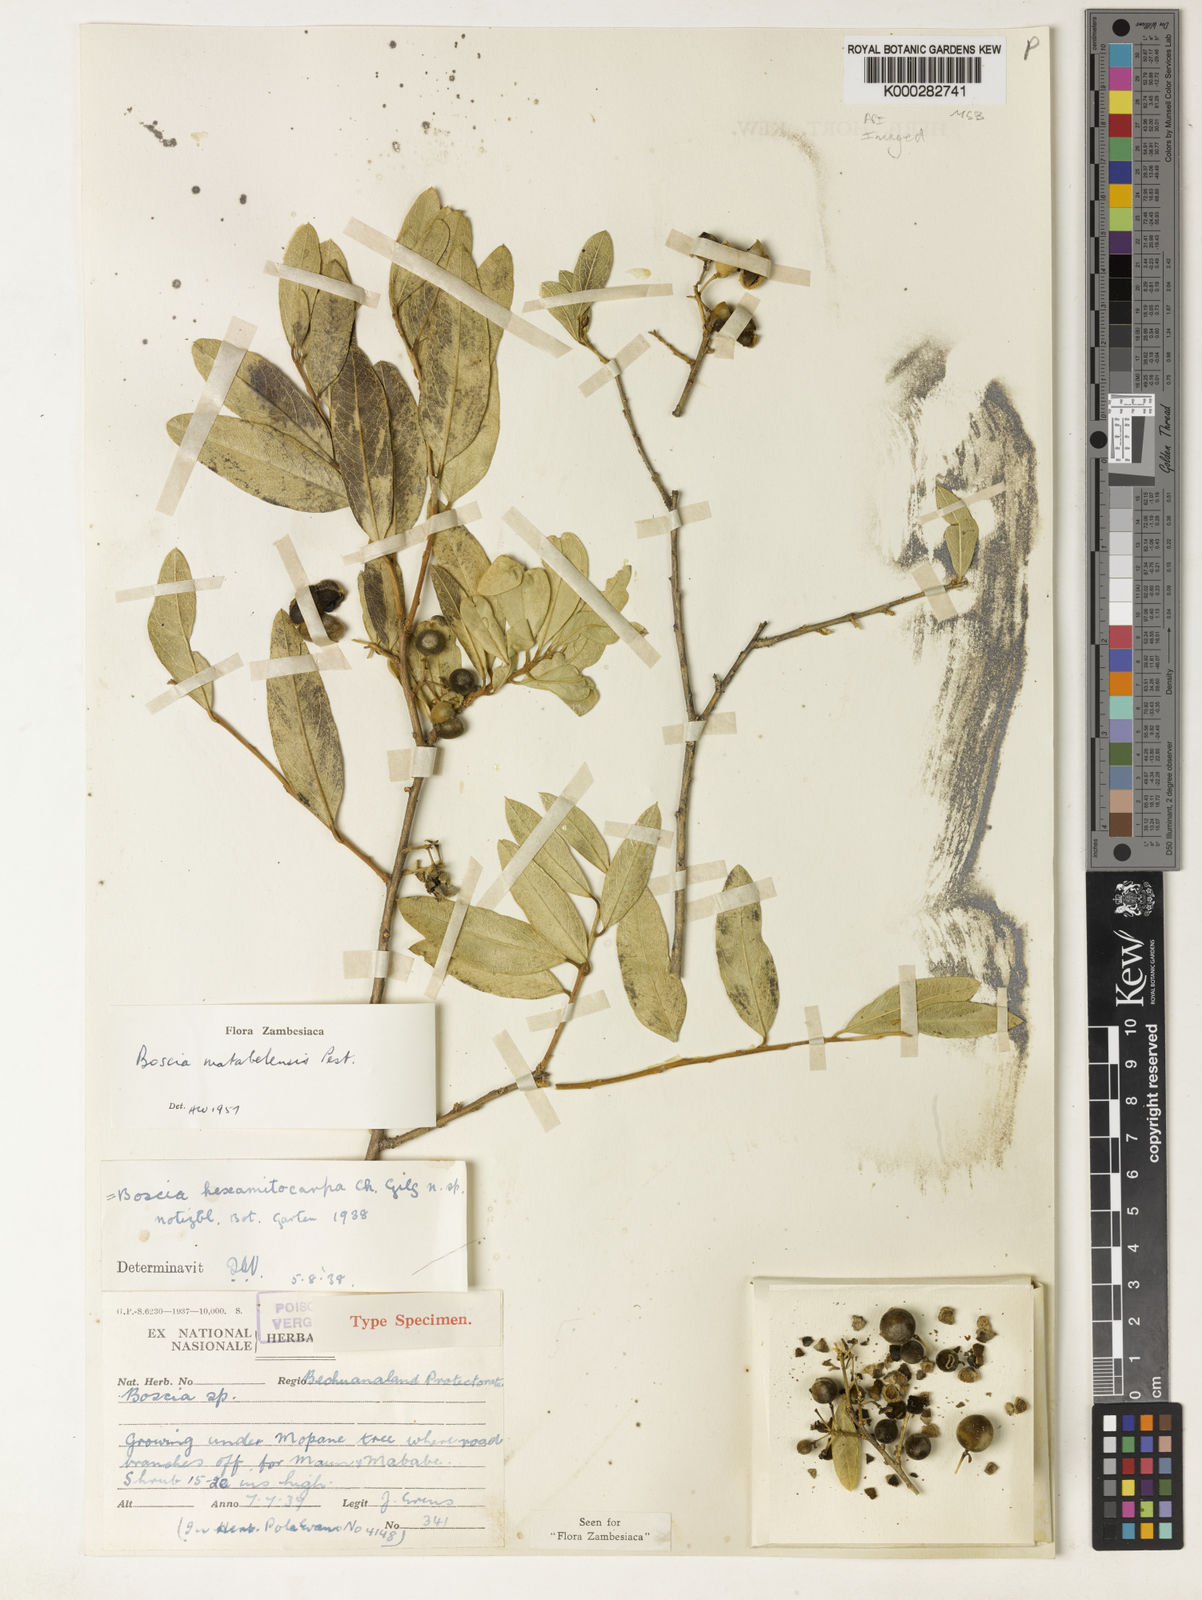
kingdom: Plantae
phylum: Tracheophyta
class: Magnoliopsida
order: Brassicales
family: Capparaceae
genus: Boscia
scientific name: Boscia matabelensis
